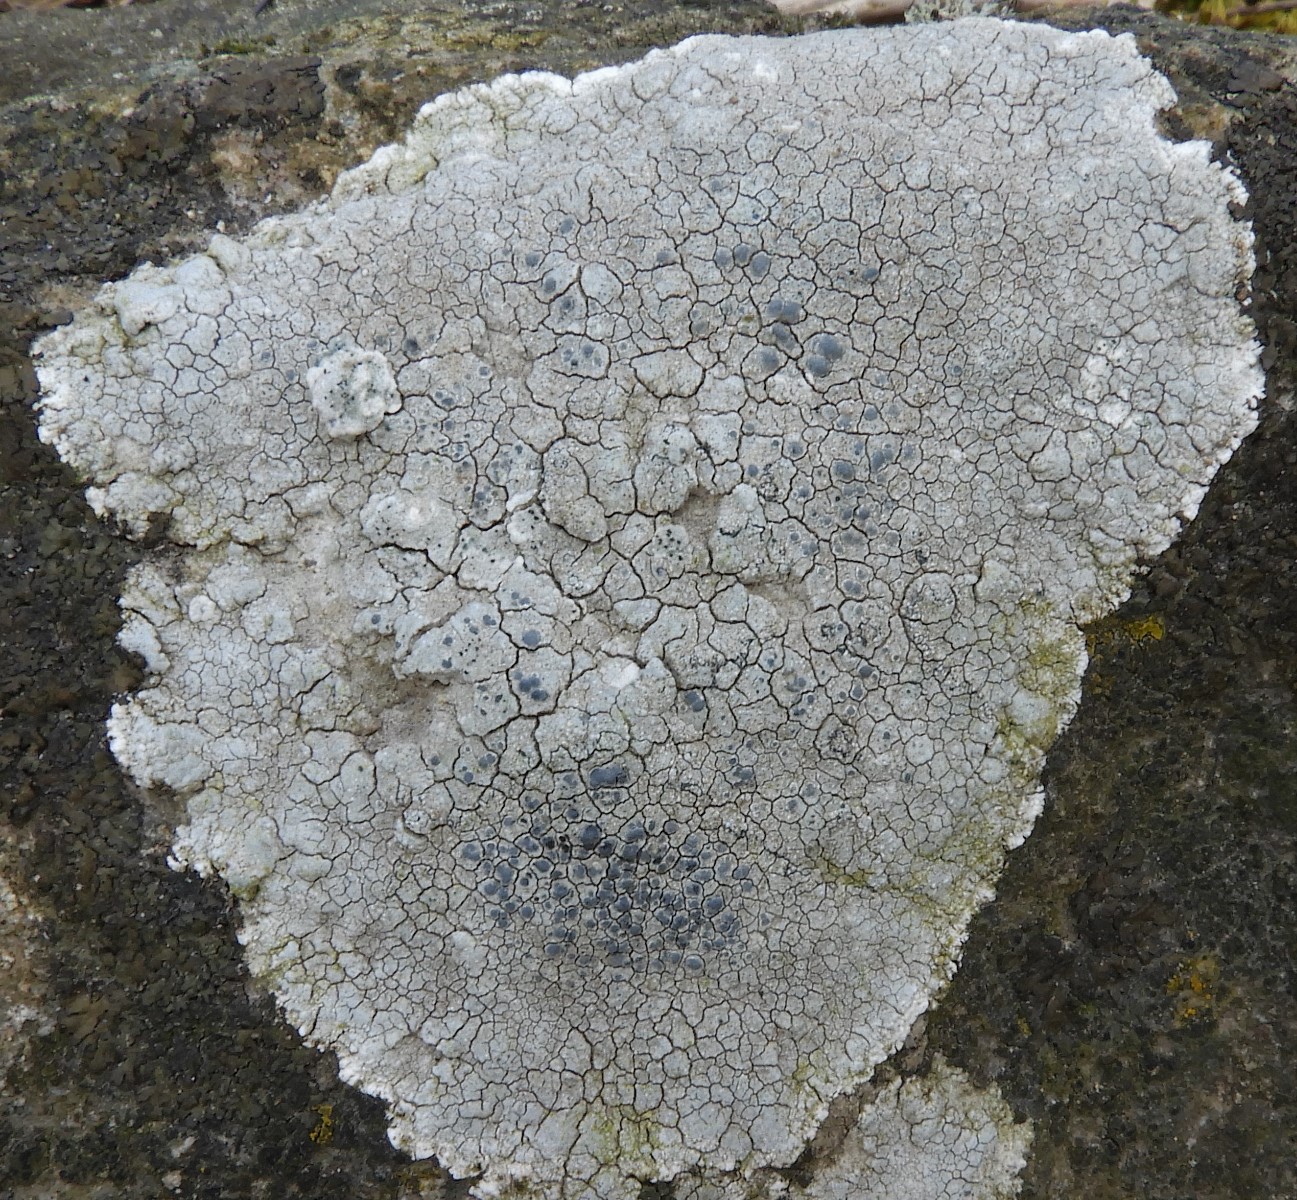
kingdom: Fungi
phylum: Ascomycota
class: Lecanoromycetes
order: Lecanorales
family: Lecanoraceae
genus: Glaucomaria
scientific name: Glaucomaria rupicola
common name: stengærde-kantskivelav
